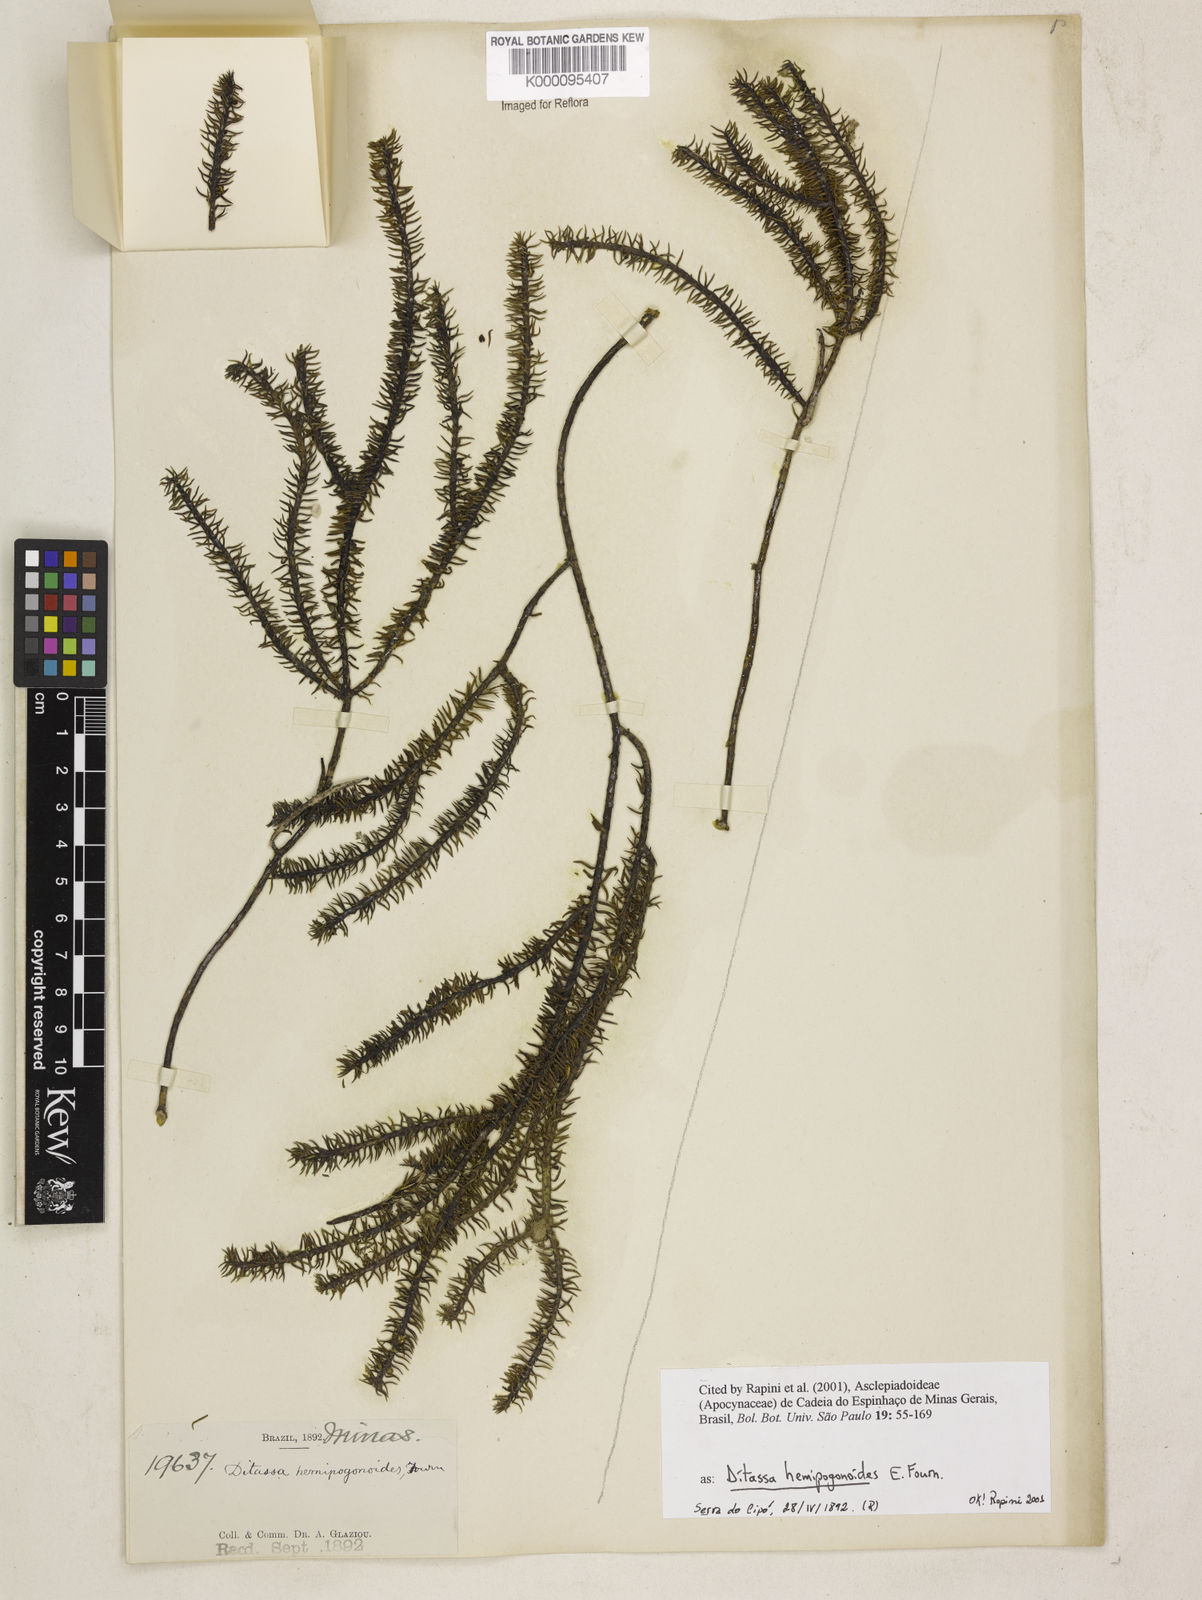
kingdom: Plantae
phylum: Tracheophyta
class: Magnoliopsida
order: Gentianales
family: Apocynaceae
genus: Minaria
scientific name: Minaria hemipogonoides
